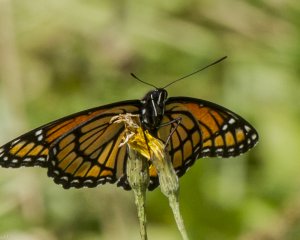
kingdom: Animalia
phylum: Arthropoda
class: Insecta
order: Lepidoptera
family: Nymphalidae
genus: Limenitis
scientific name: Limenitis archippus
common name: Viceroy
